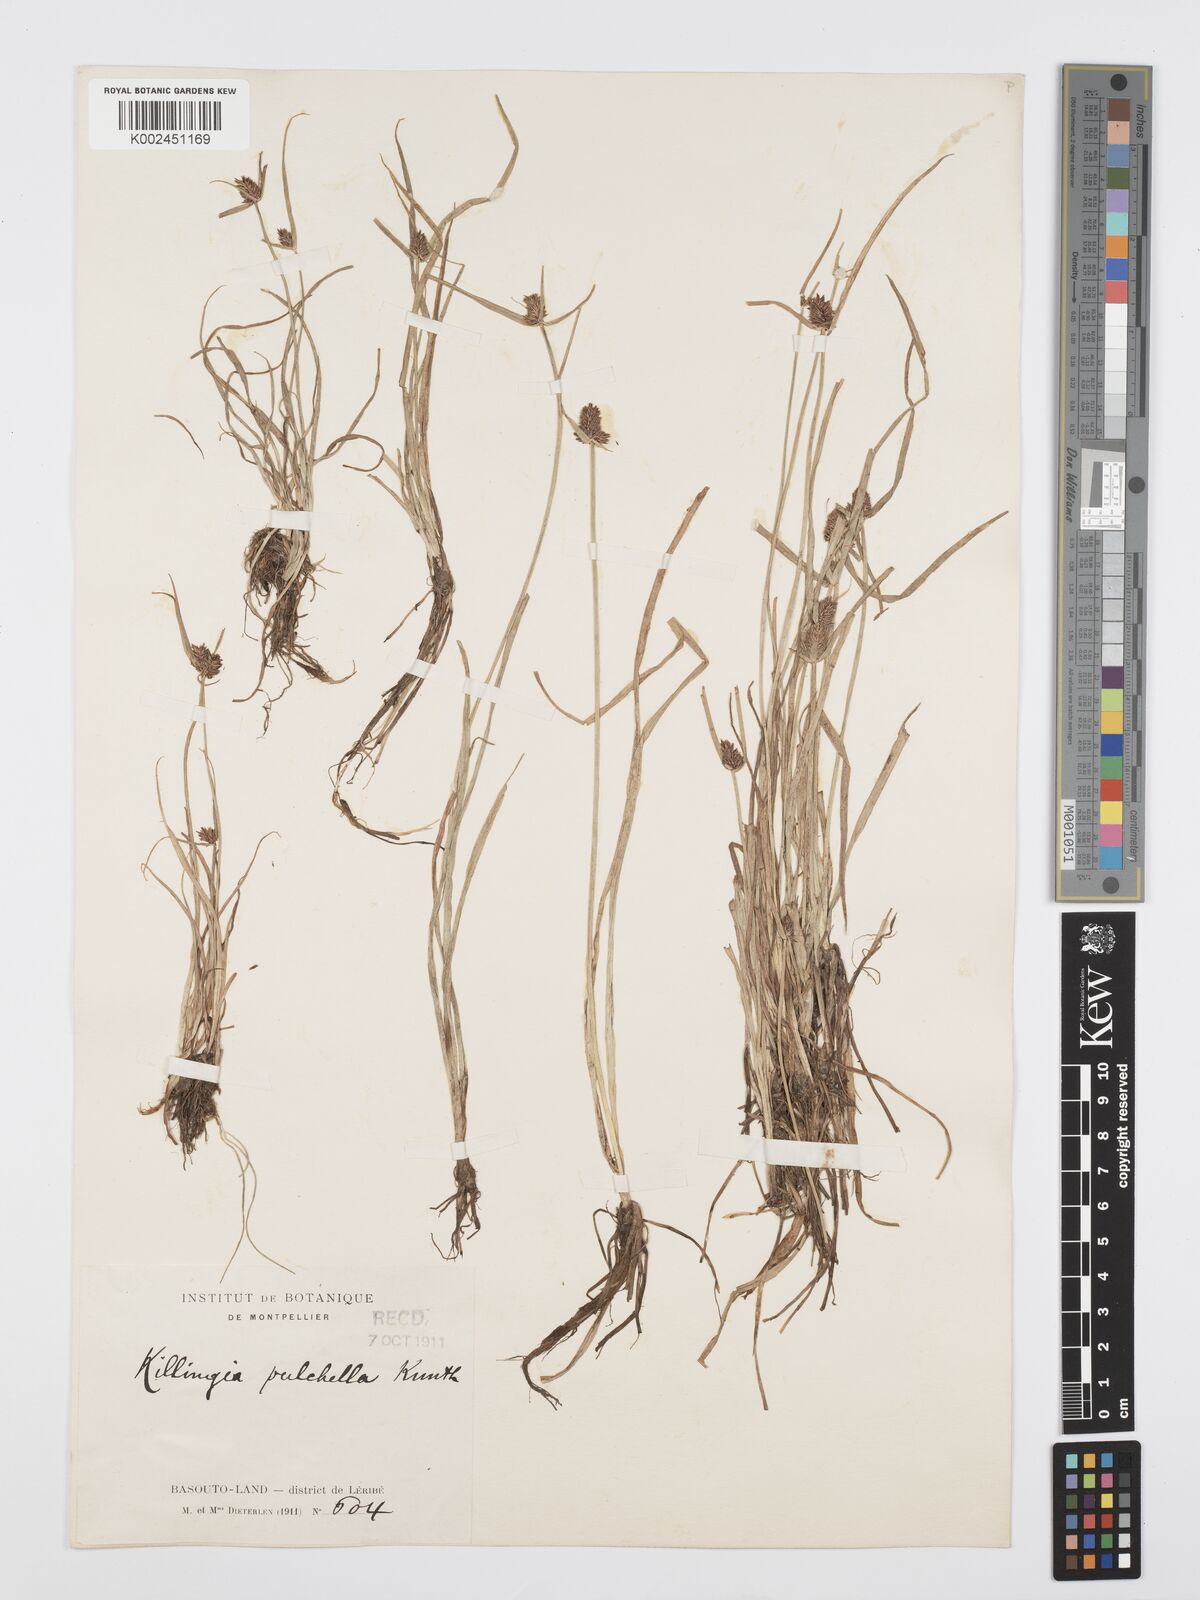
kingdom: Plantae
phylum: Tracheophyta
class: Liliopsida
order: Poales
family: Cyperaceae
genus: Cyperus
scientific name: Cyperus bracheilema
